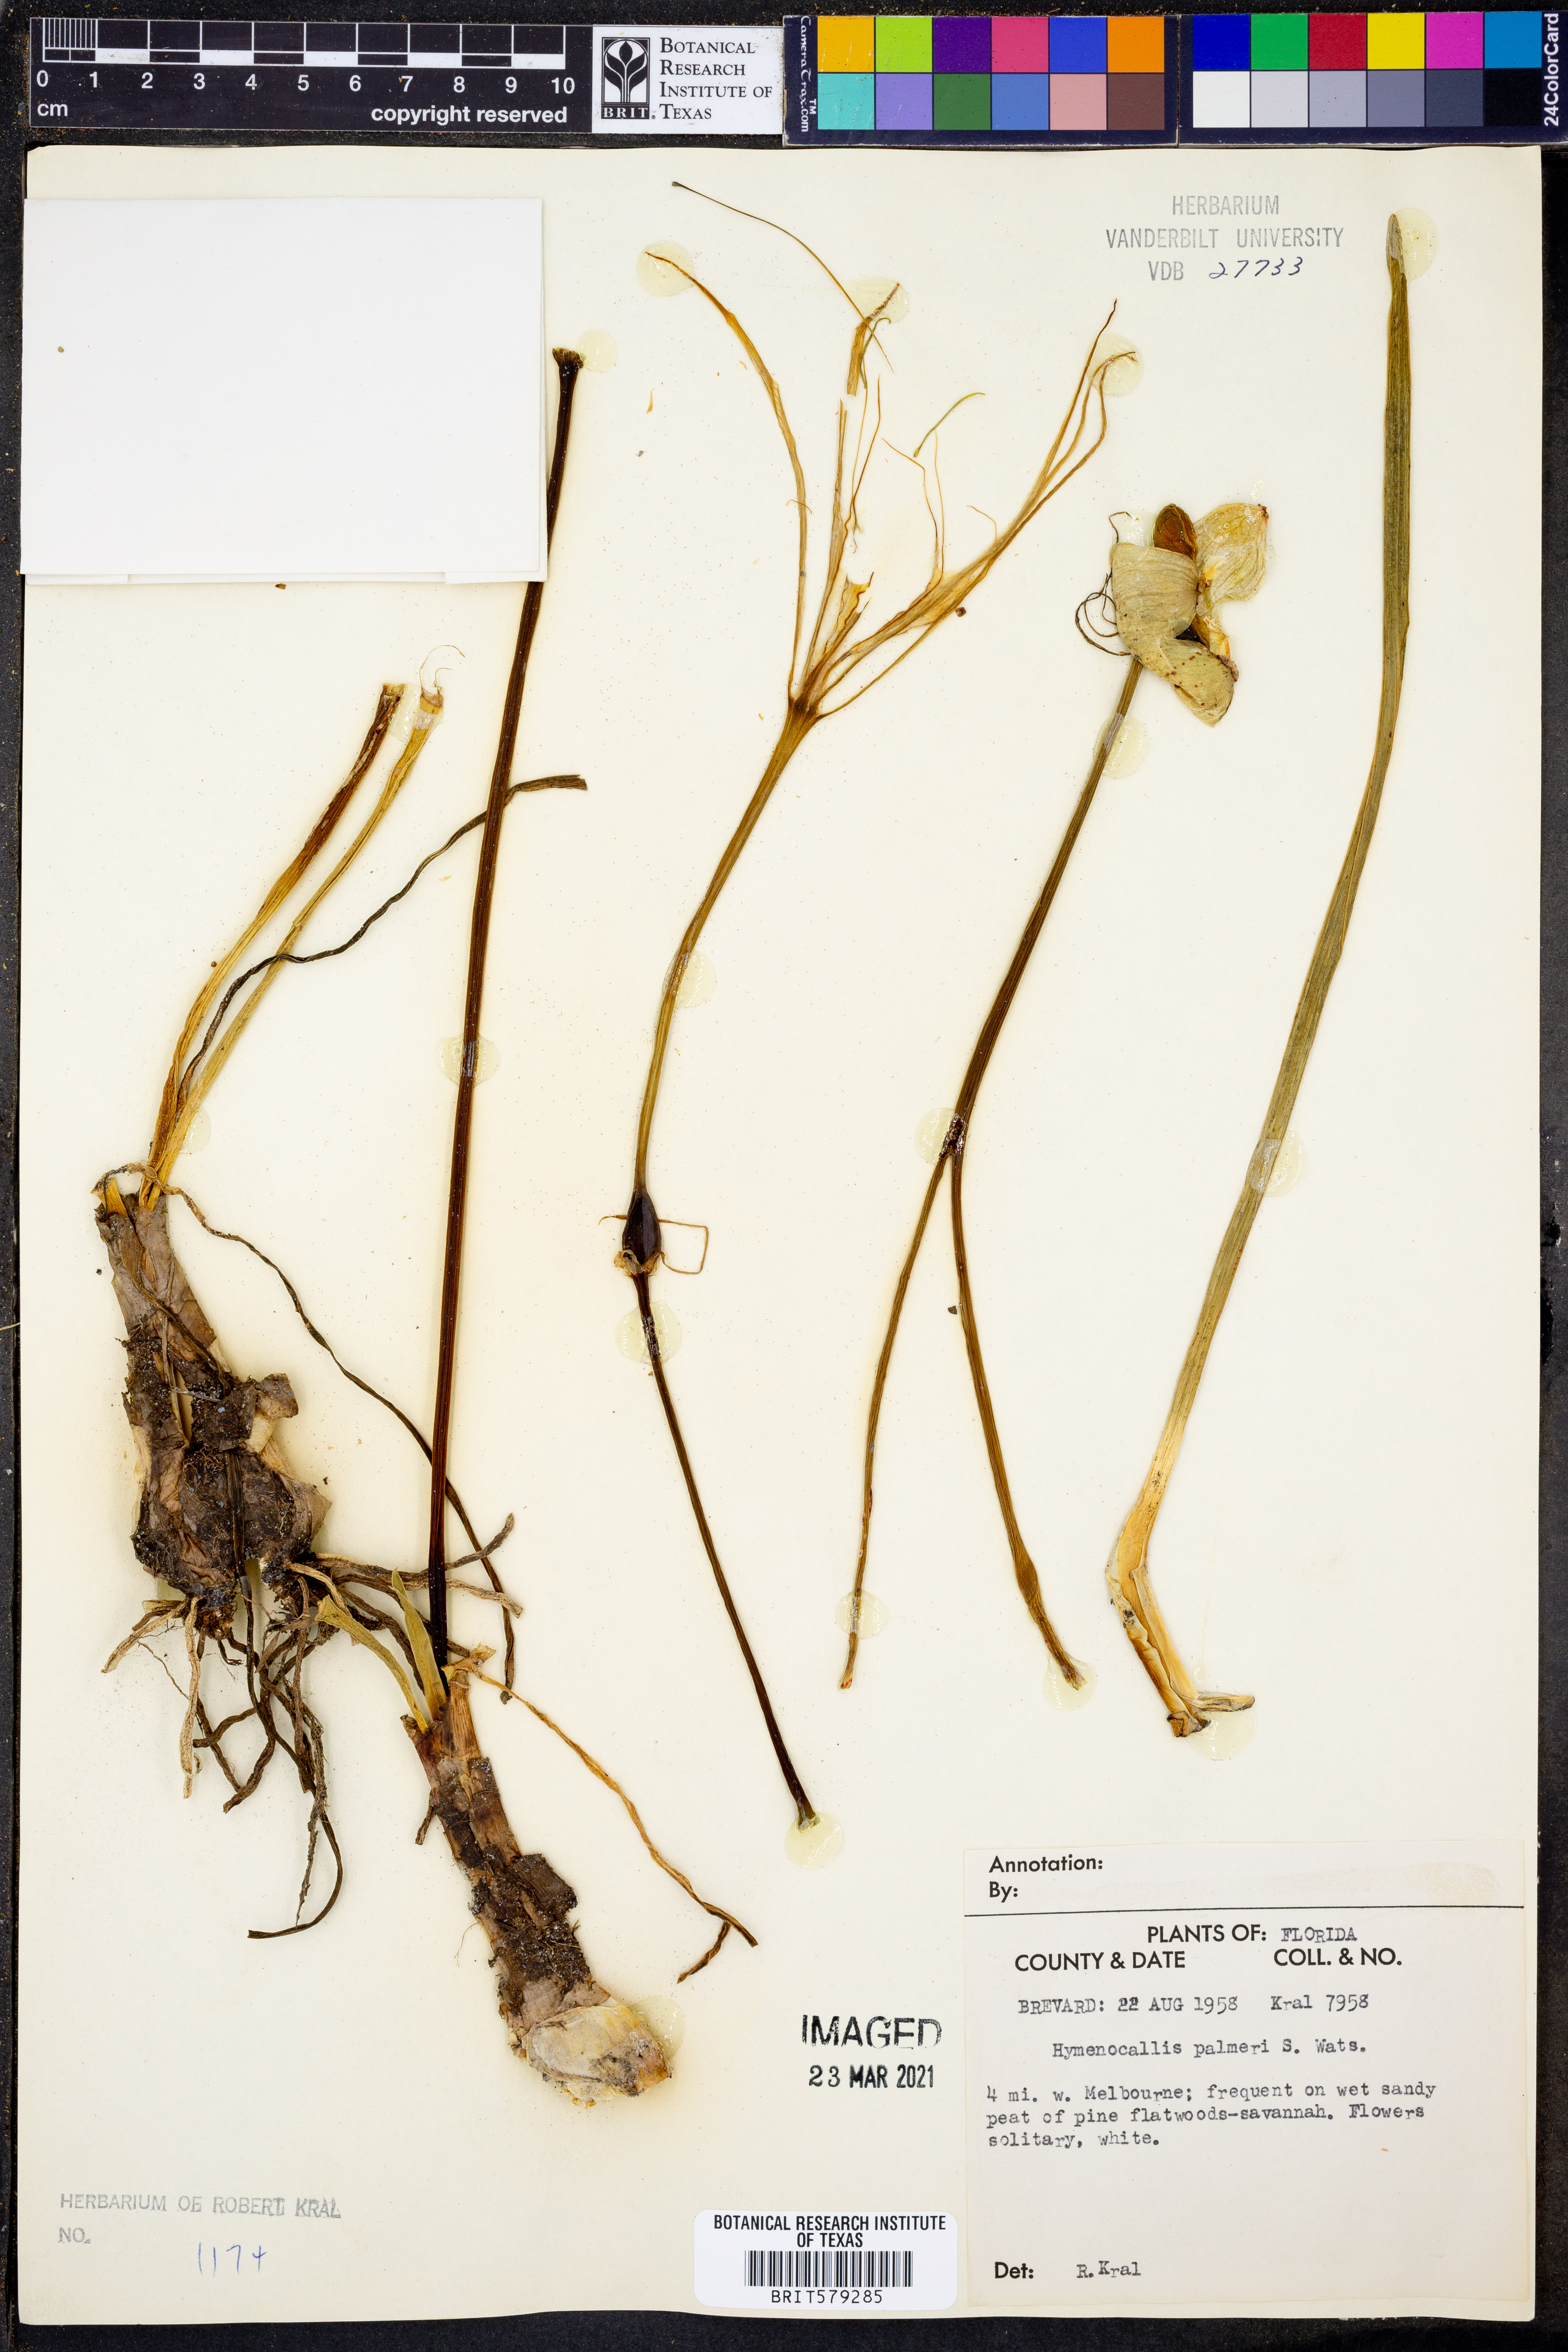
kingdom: Plantae
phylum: Tracheophyta
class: Liliopsida
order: Asparagales
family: Amaryllidaceae
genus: Hymenocallis
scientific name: Hymenocallis palmeri
